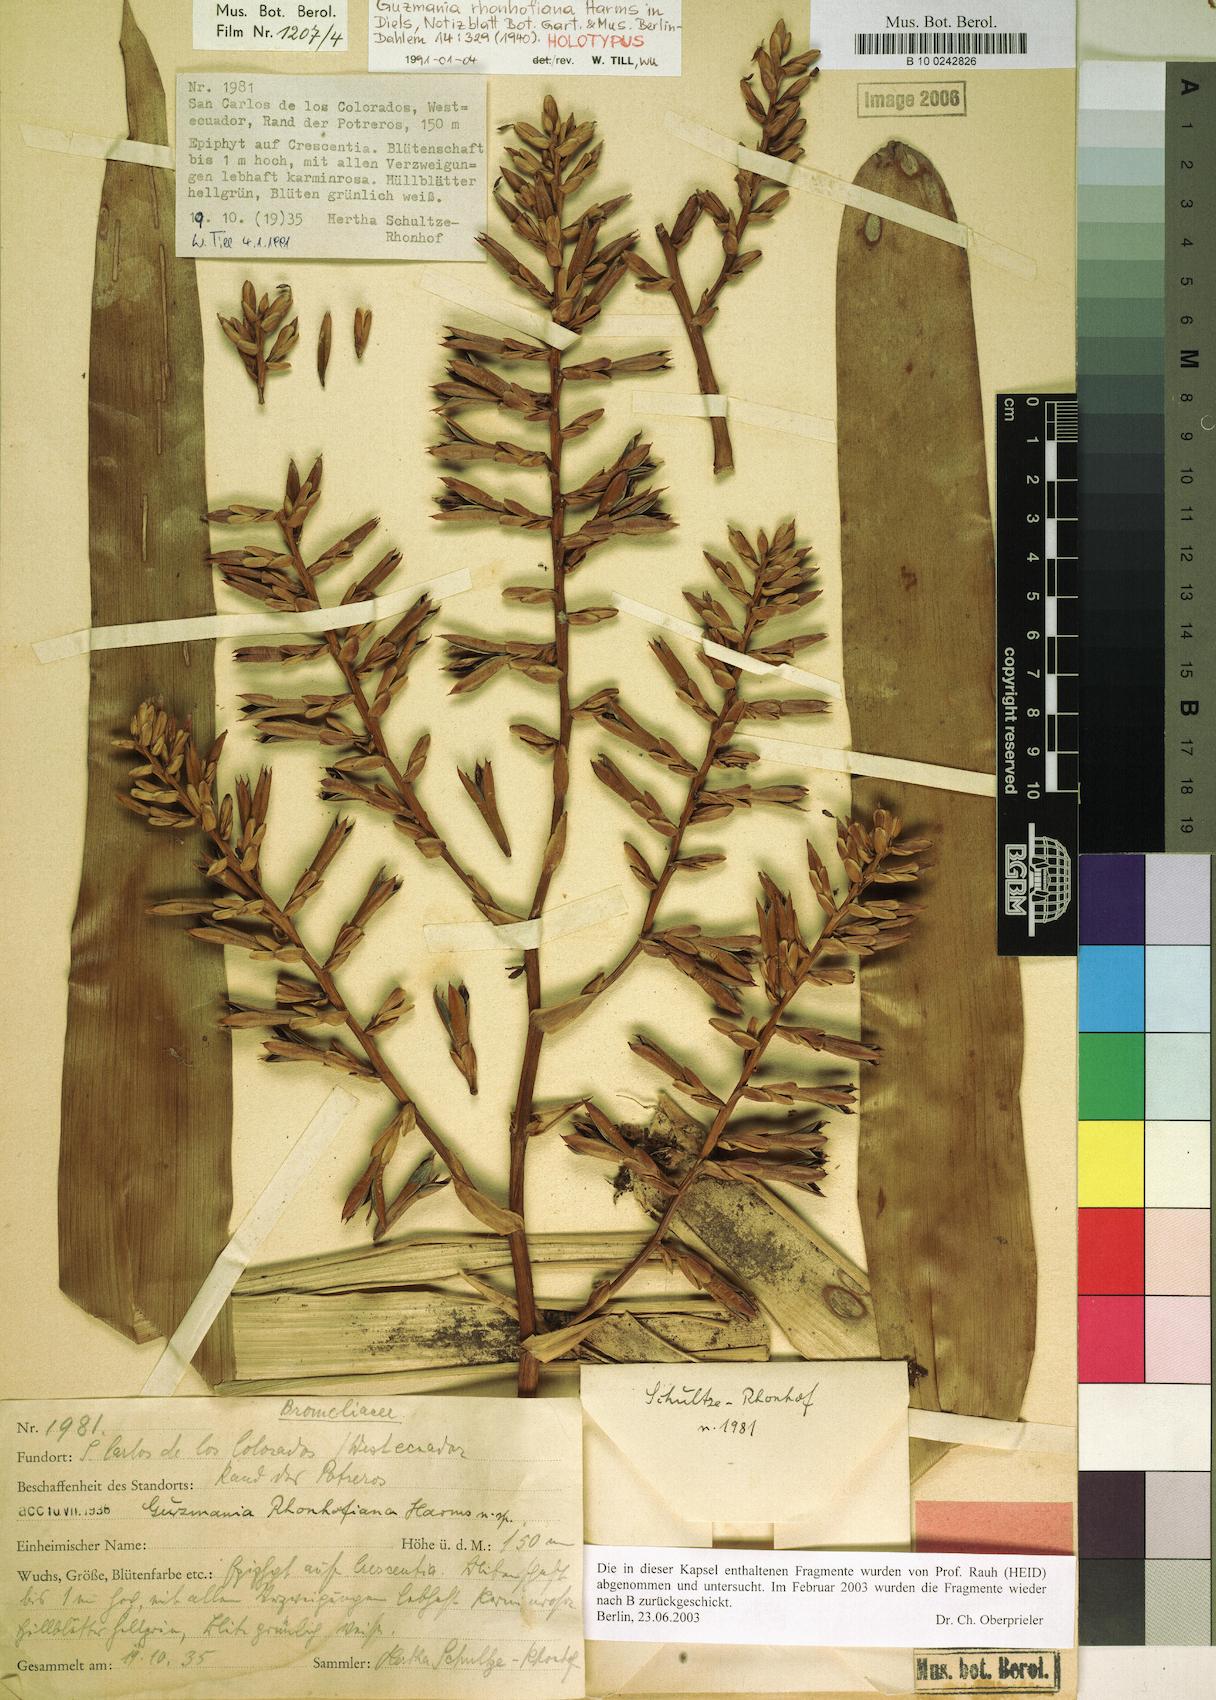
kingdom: Plantae
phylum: Tracheophyta
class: Liliopsida
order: Poales
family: Bromeliaceae
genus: Guzmania
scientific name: Guzmania rhonhofiana
